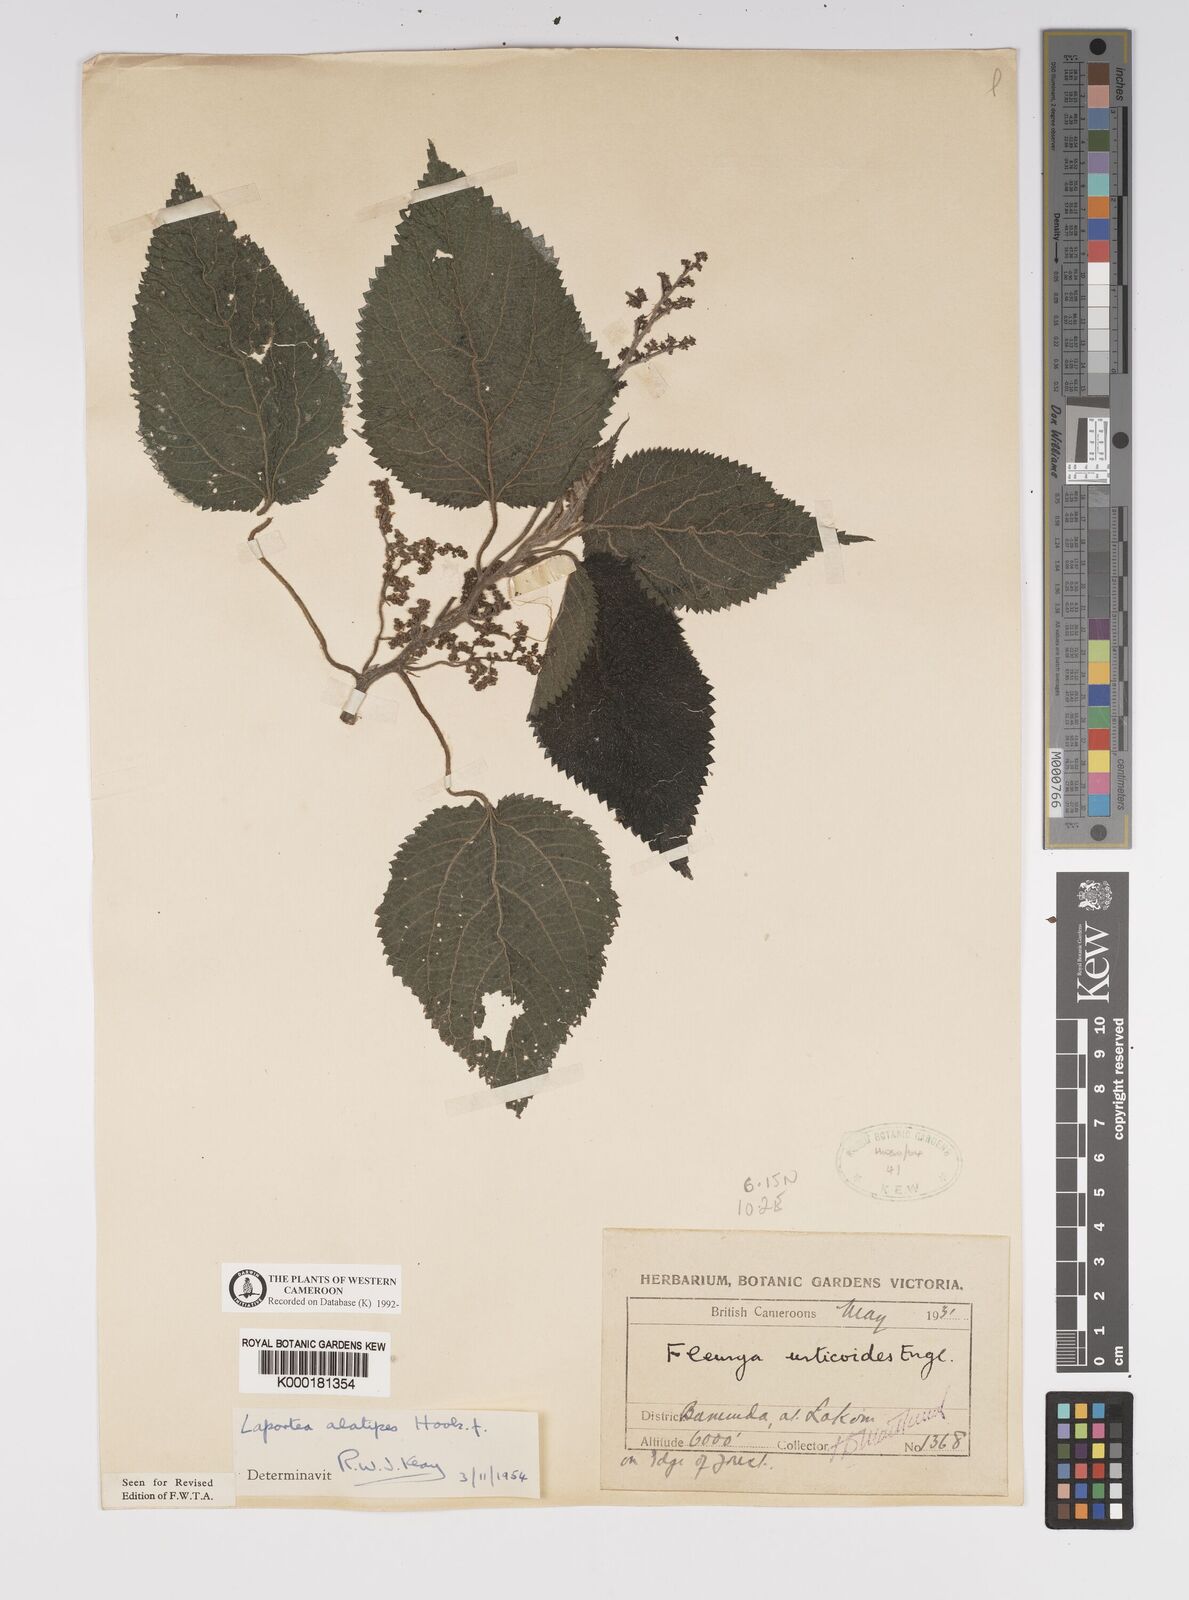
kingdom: Plantae
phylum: Tracheophyta
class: Magnoliopsida
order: Rosales
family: Urticaceae
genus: Laportea
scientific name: Laportea alatipes
